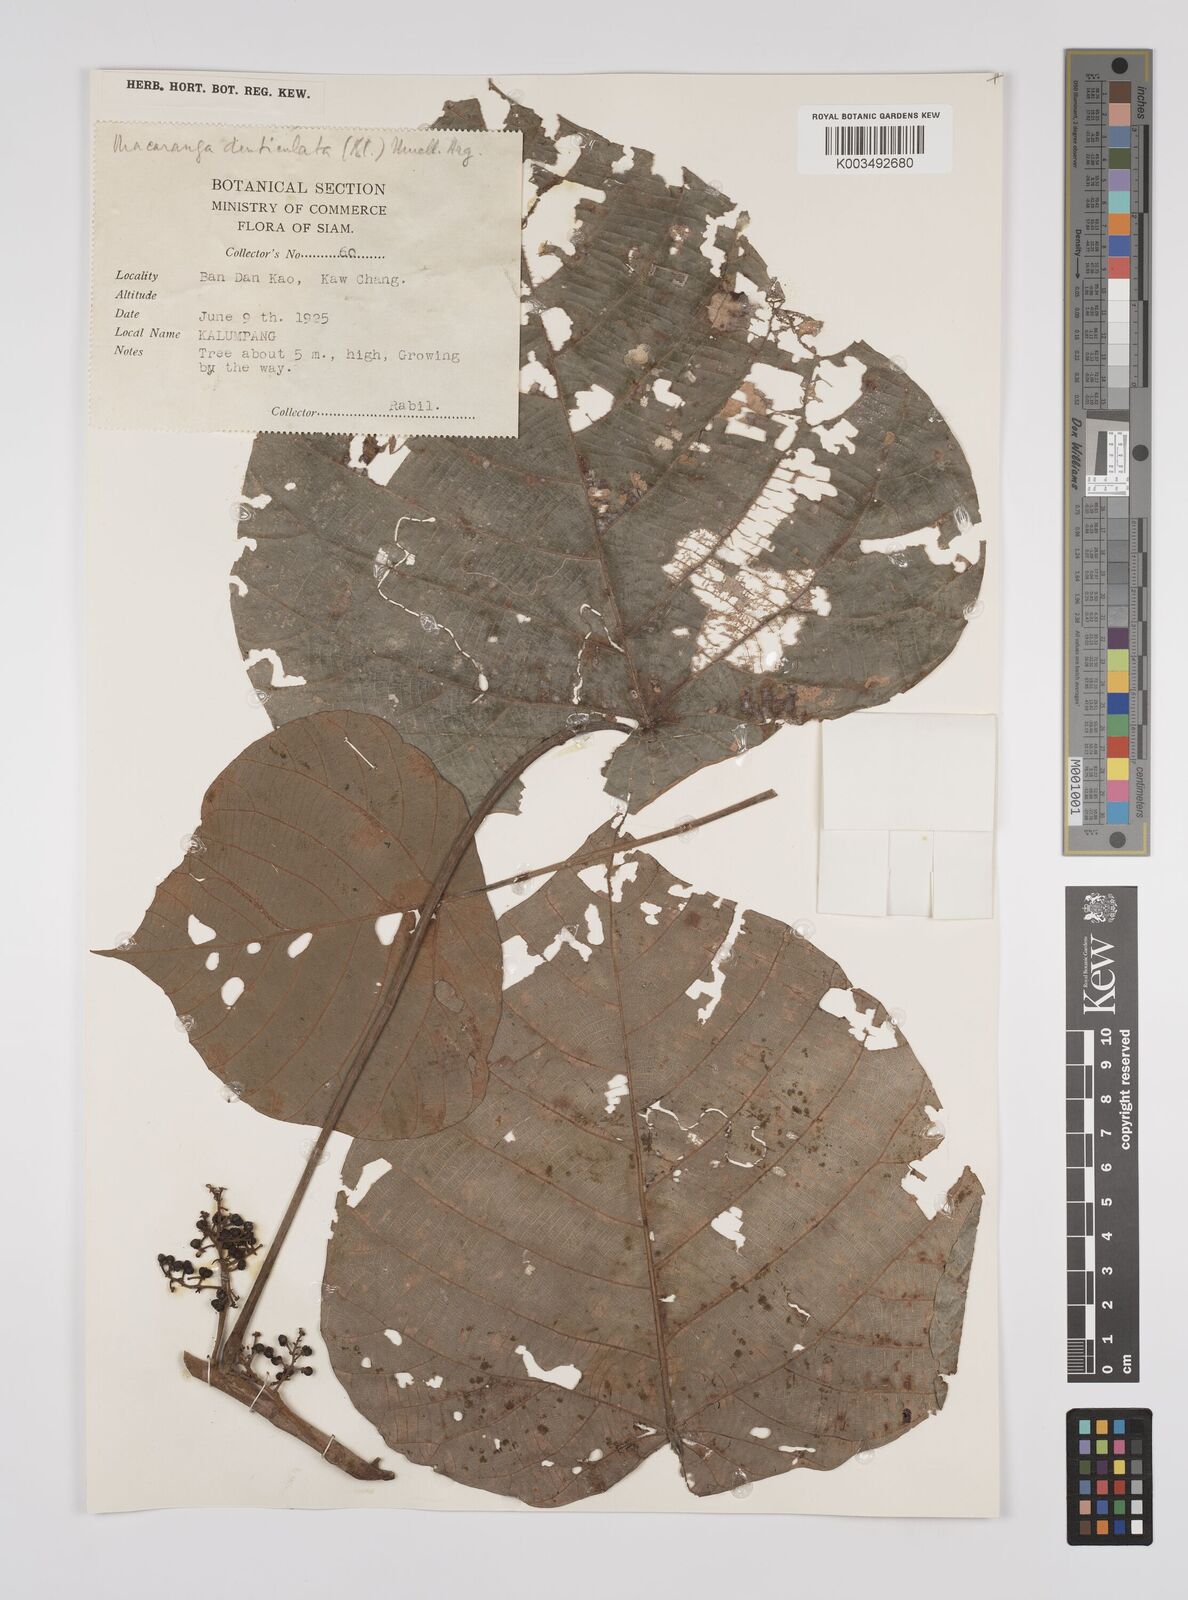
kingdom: Plantae
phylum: Tracheophyta
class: Magnoliopsida
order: Malpighiales
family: Euphorbiaceae
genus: Macaranga
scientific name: Macaranga denticulata
